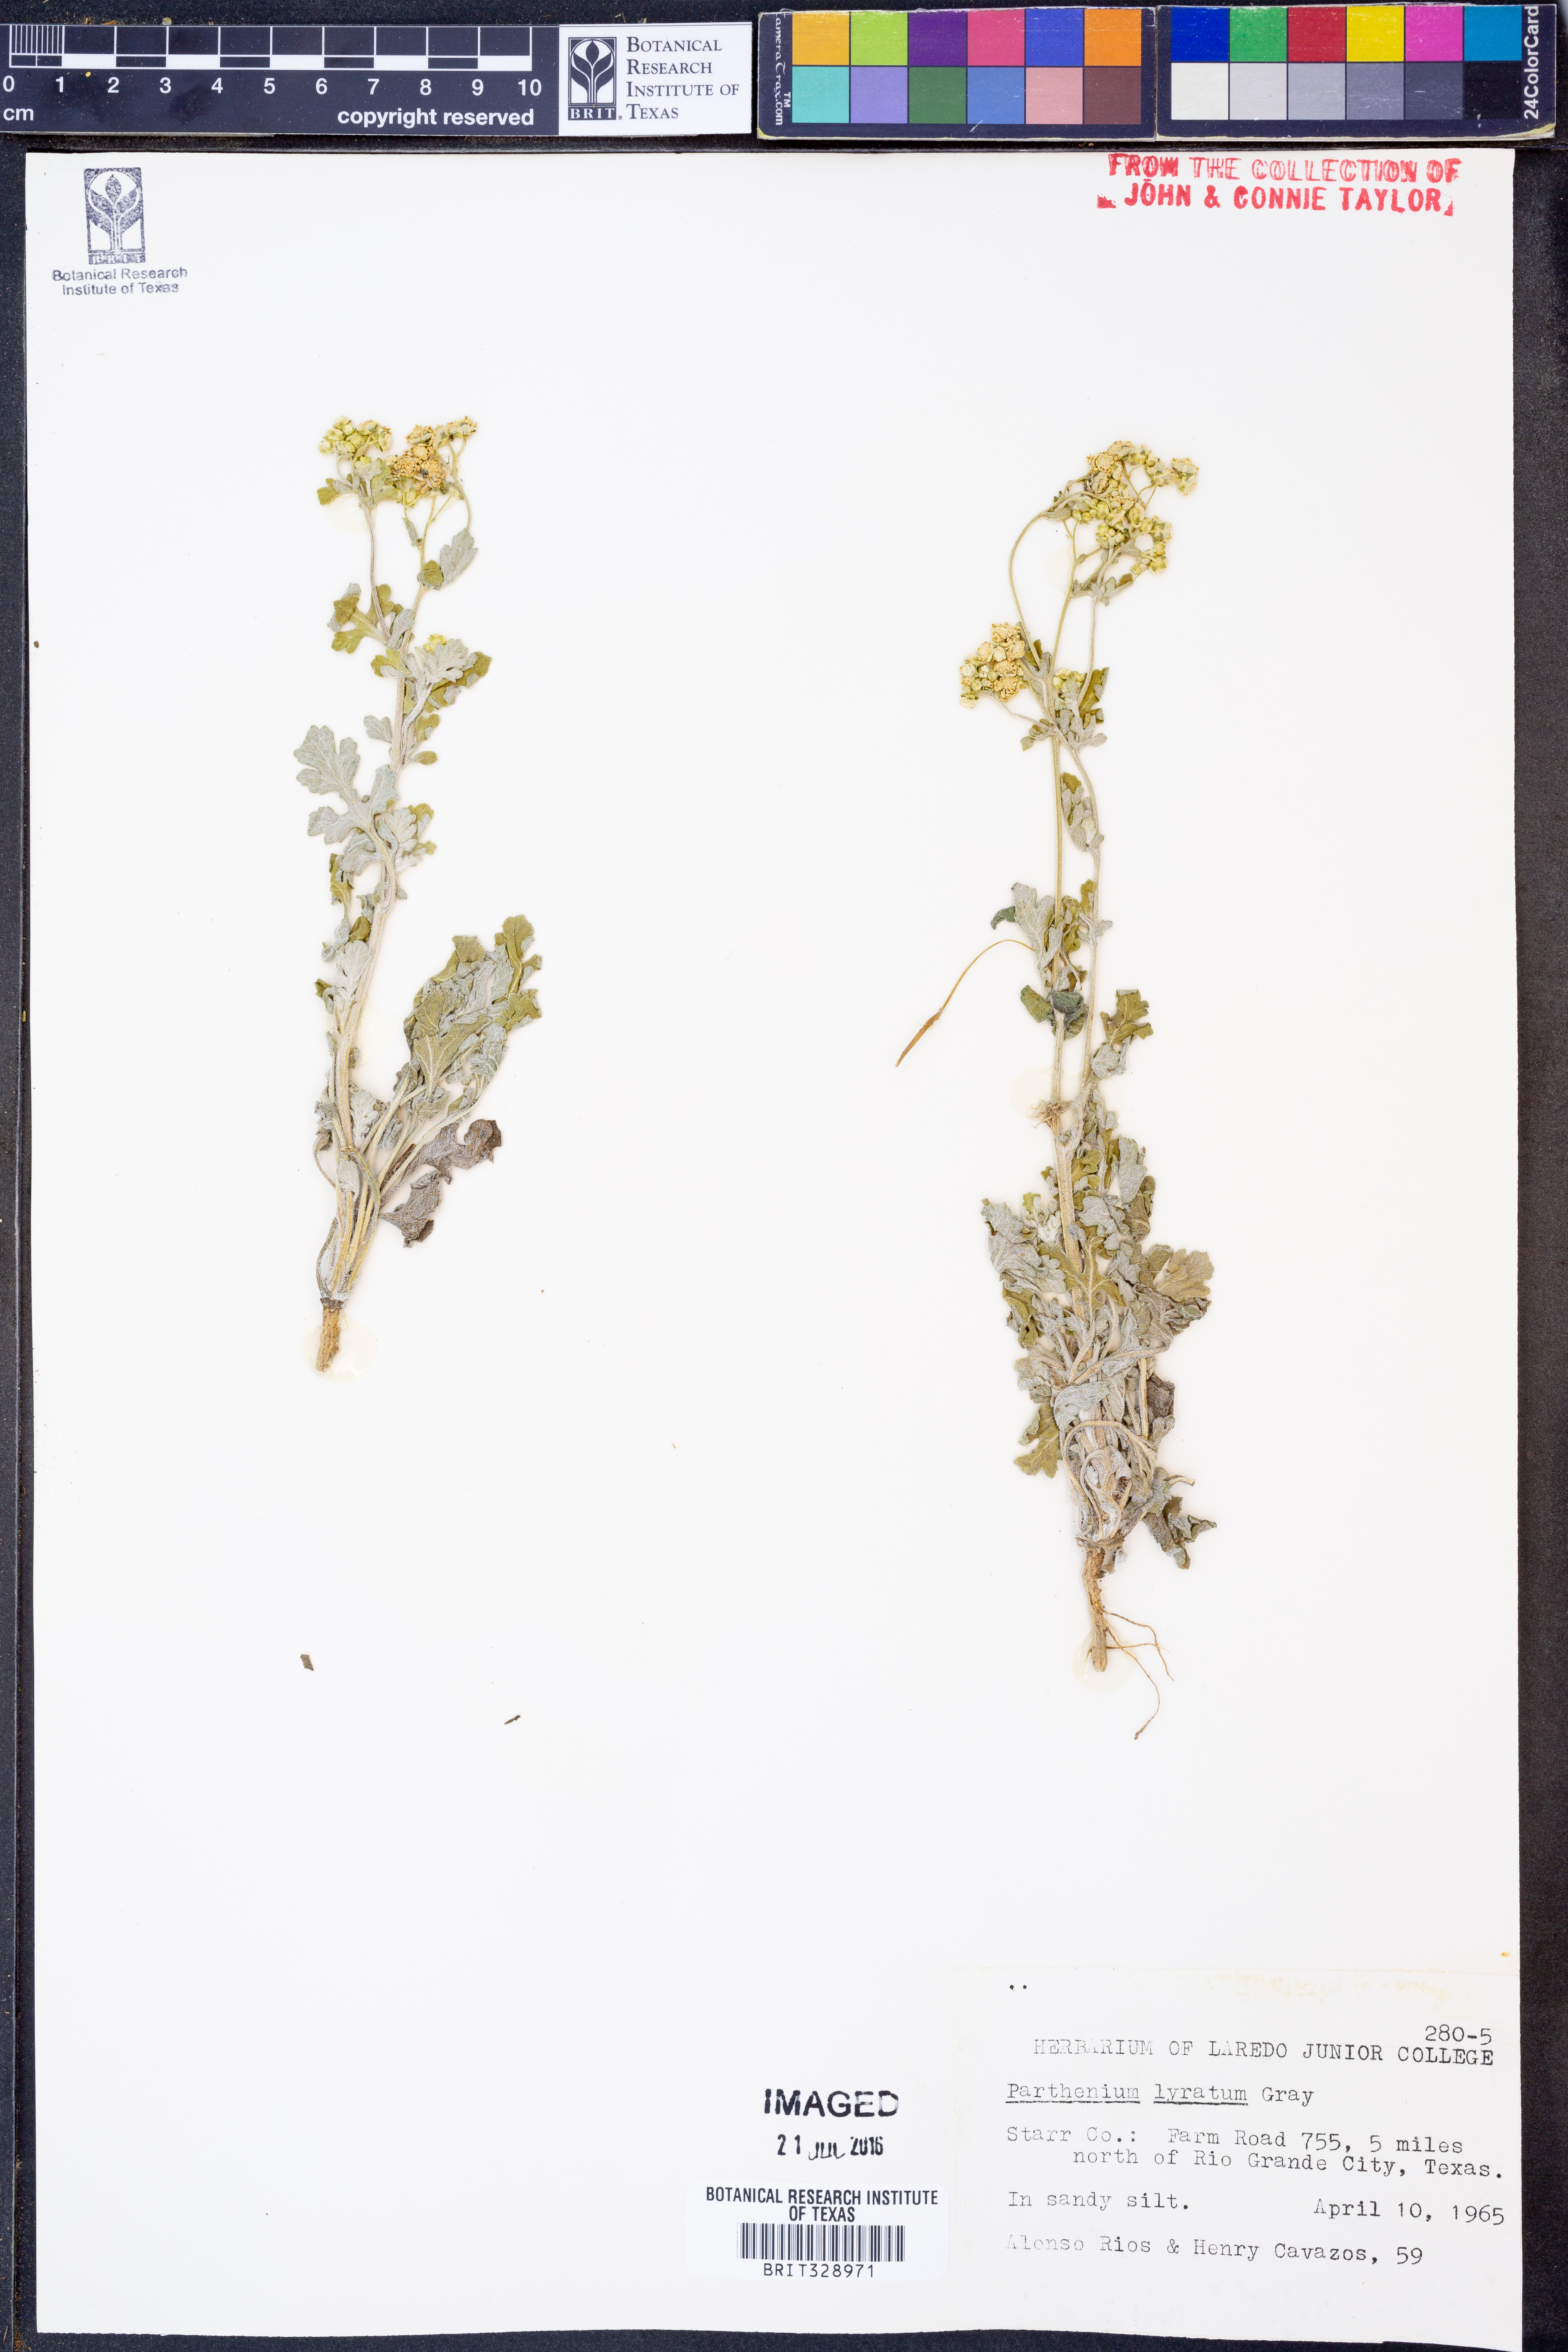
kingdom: Plantae
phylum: Tracheophyta
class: Magnoliopsida
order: Asterales
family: Asteraceae
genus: Parthenium
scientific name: Parthenium confertum
